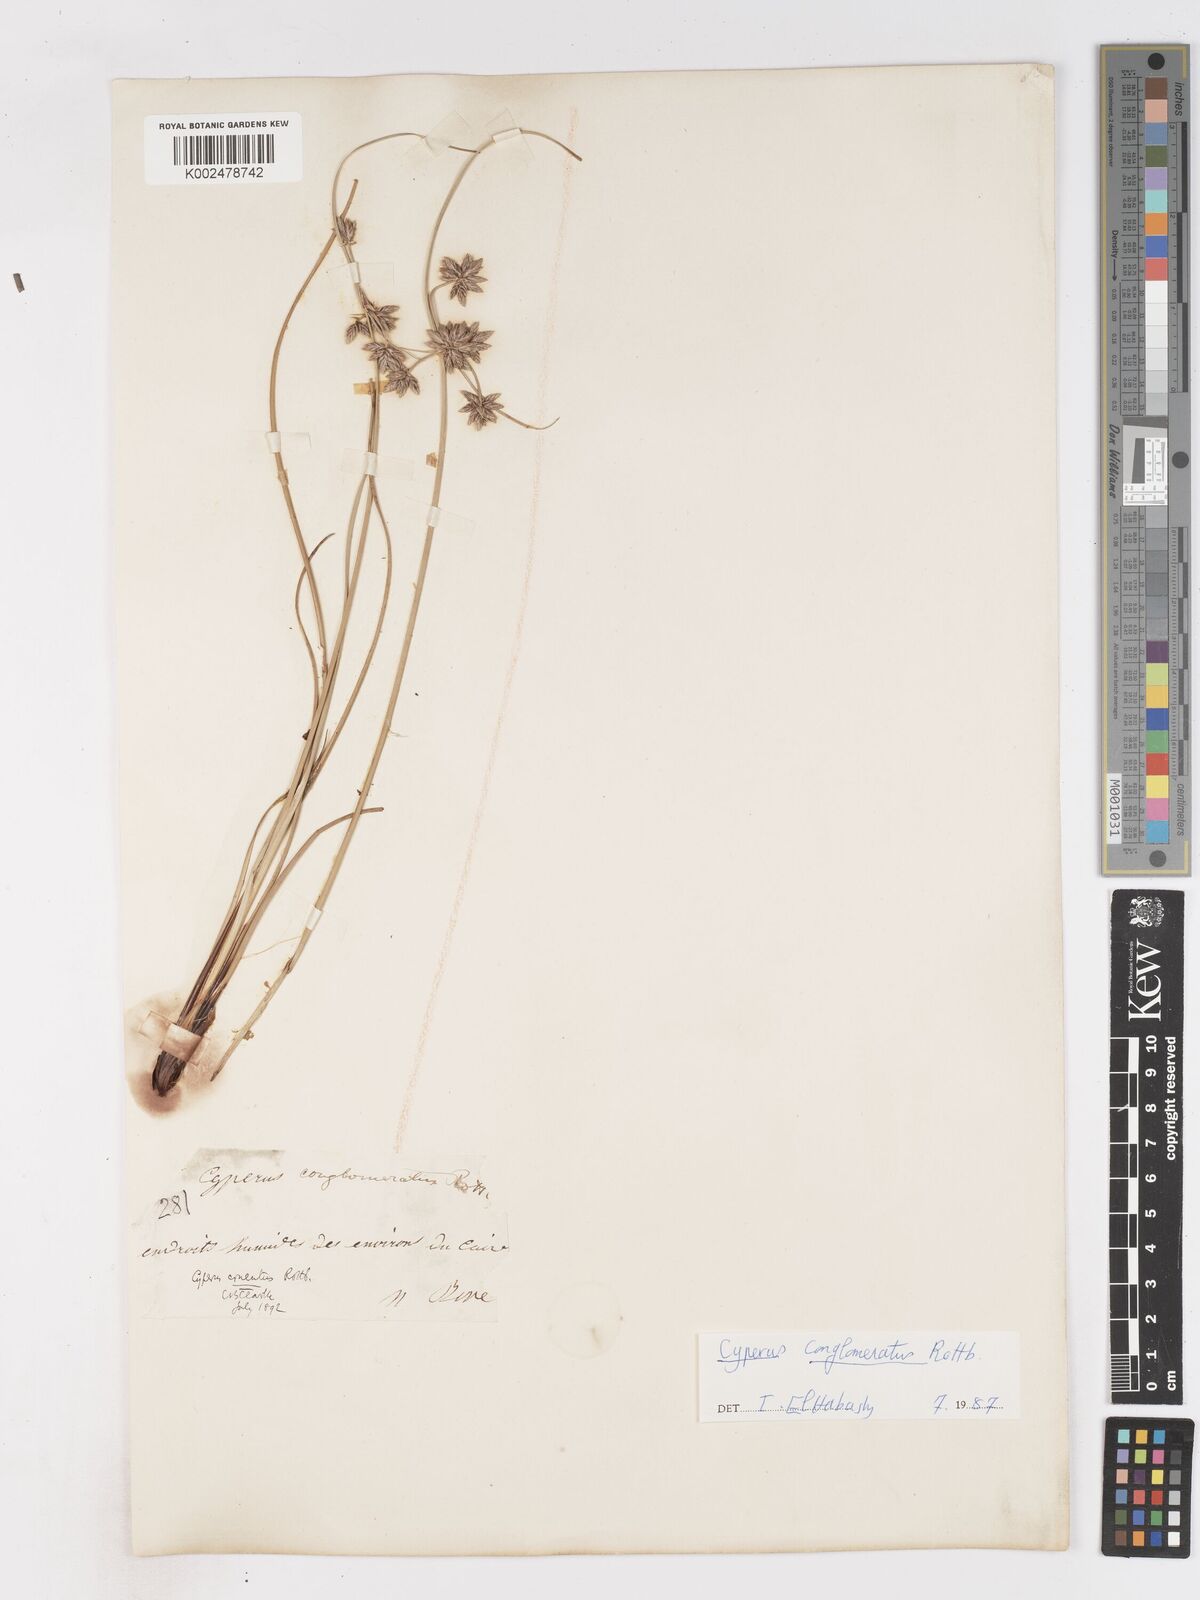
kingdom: Plantae
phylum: Tracheophyta
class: Liliopsida
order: Poales
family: Cyperaceae
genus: Cyperus
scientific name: Cyperus conglomeratus
